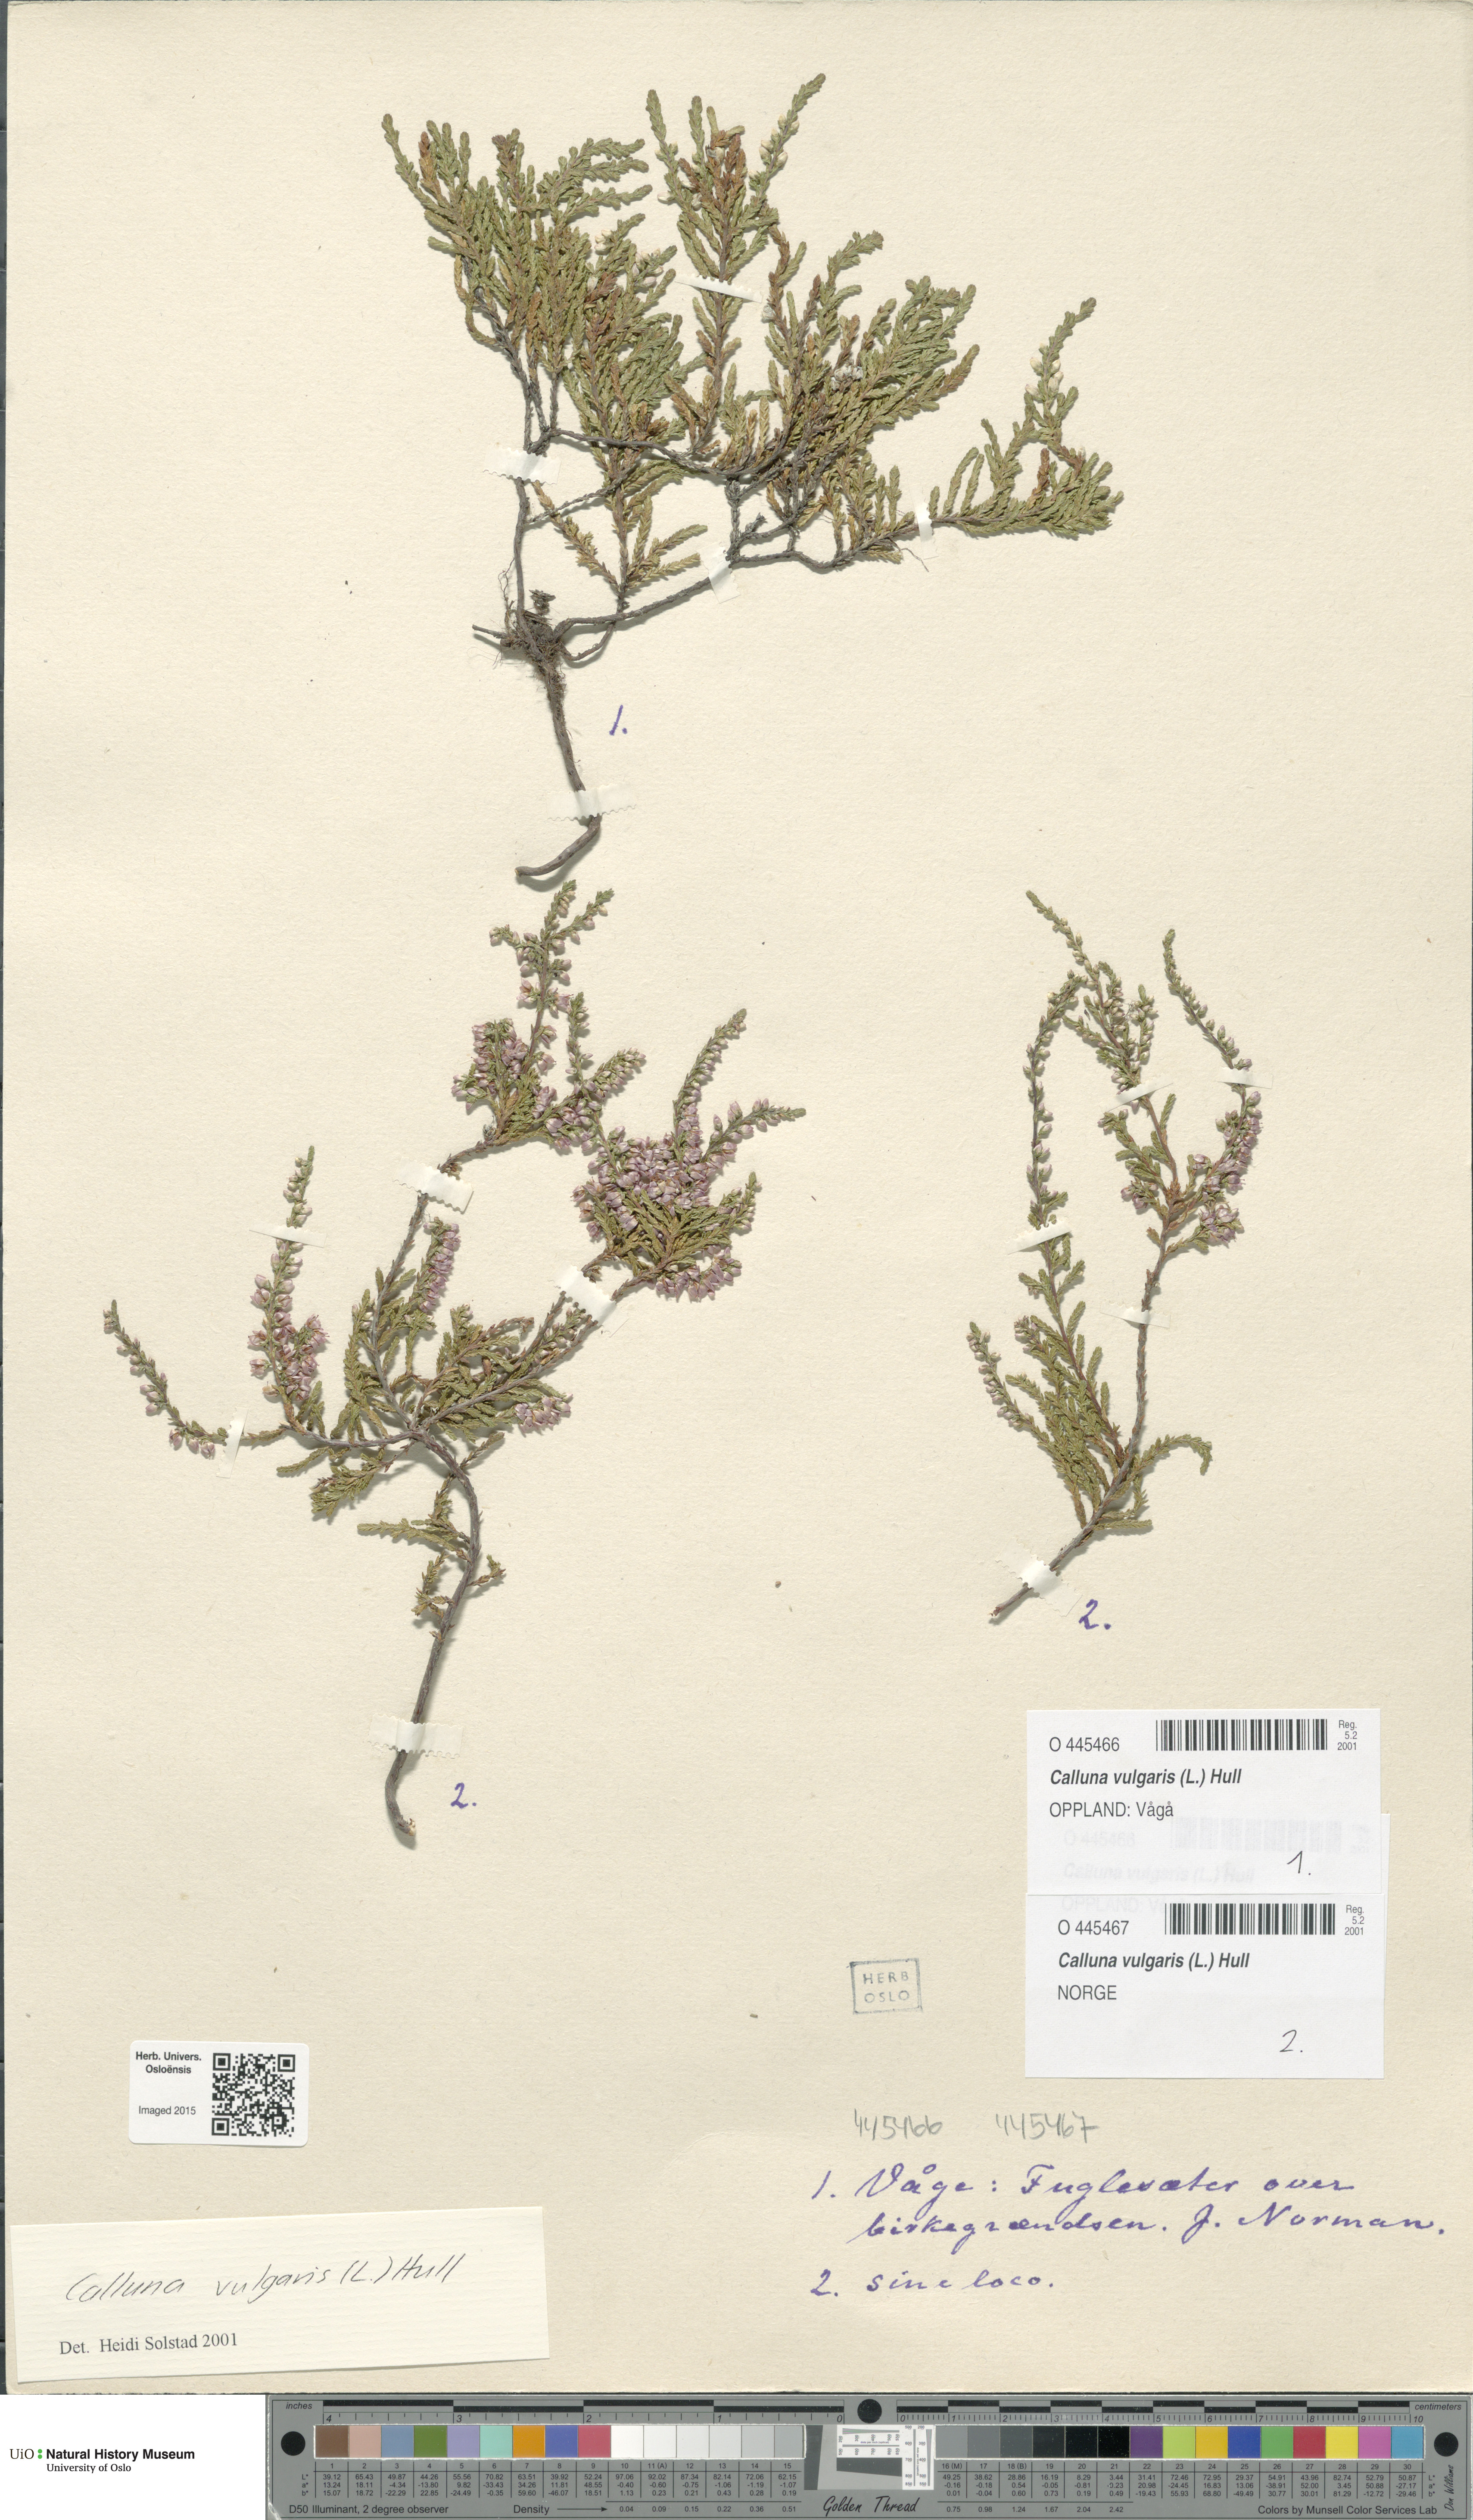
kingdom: Plantae
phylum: Tracheophyta
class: Magnoliopsida
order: Ericales
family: Ericaceae
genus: Calluna
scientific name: Calluna vulgaris
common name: Heather
